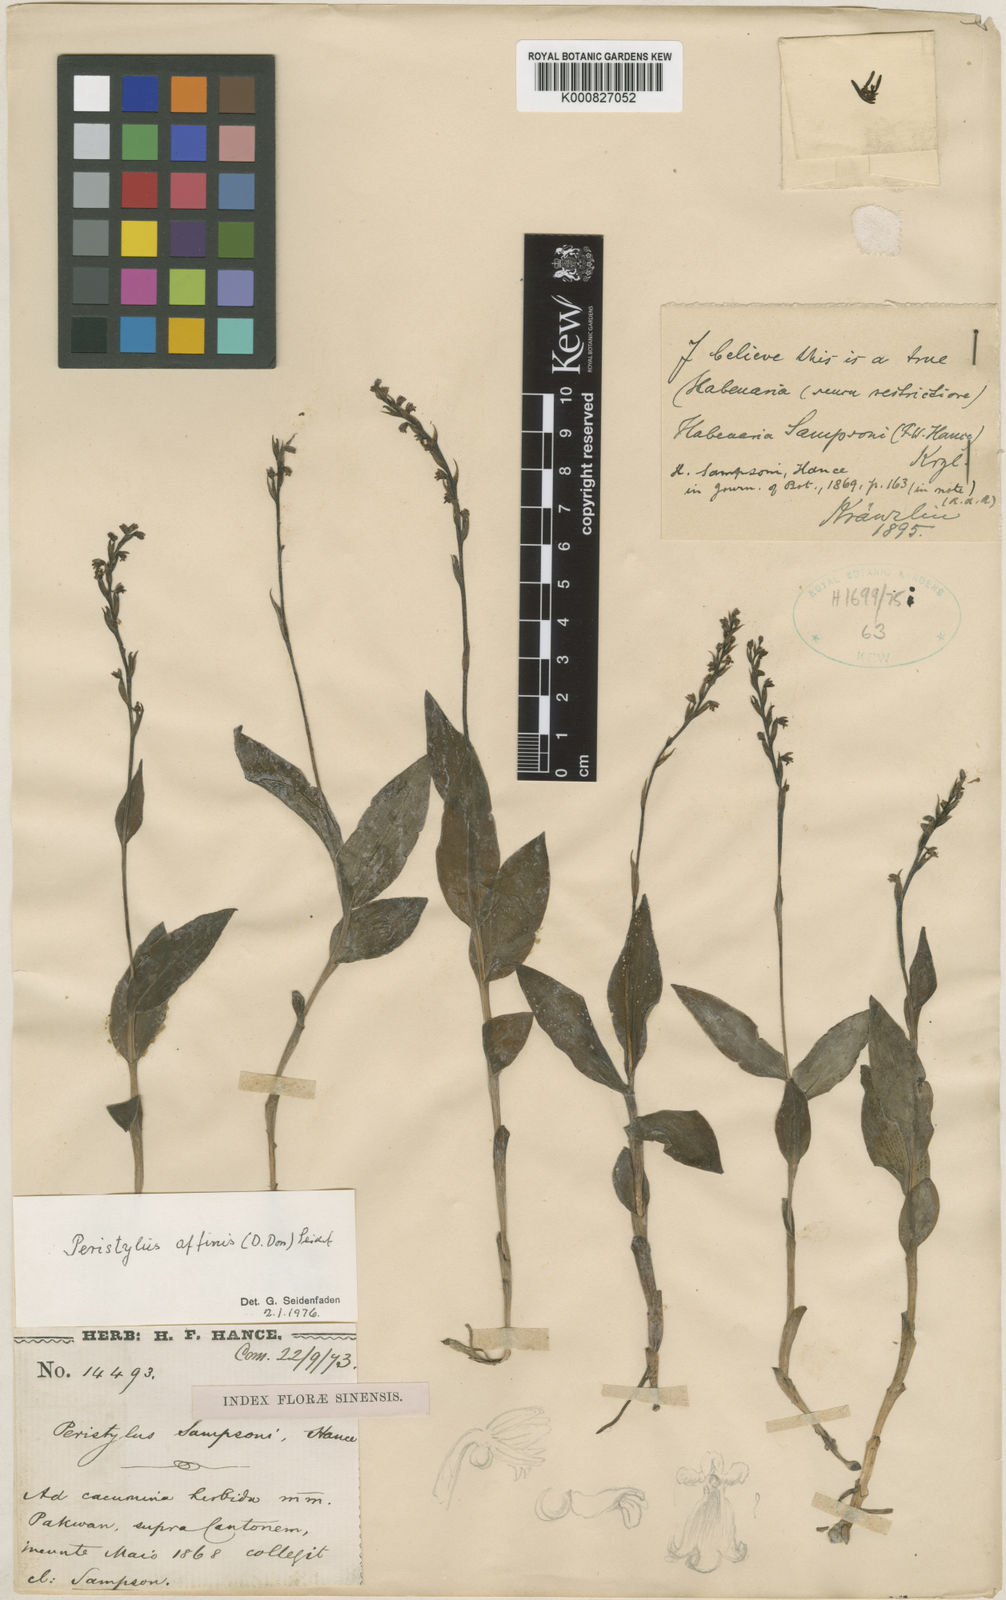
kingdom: Plantae
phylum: Tracheophyta
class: Liliopsida
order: Asparagales
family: Orchidaceae
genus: Peristylus
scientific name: Peristylus affinis
